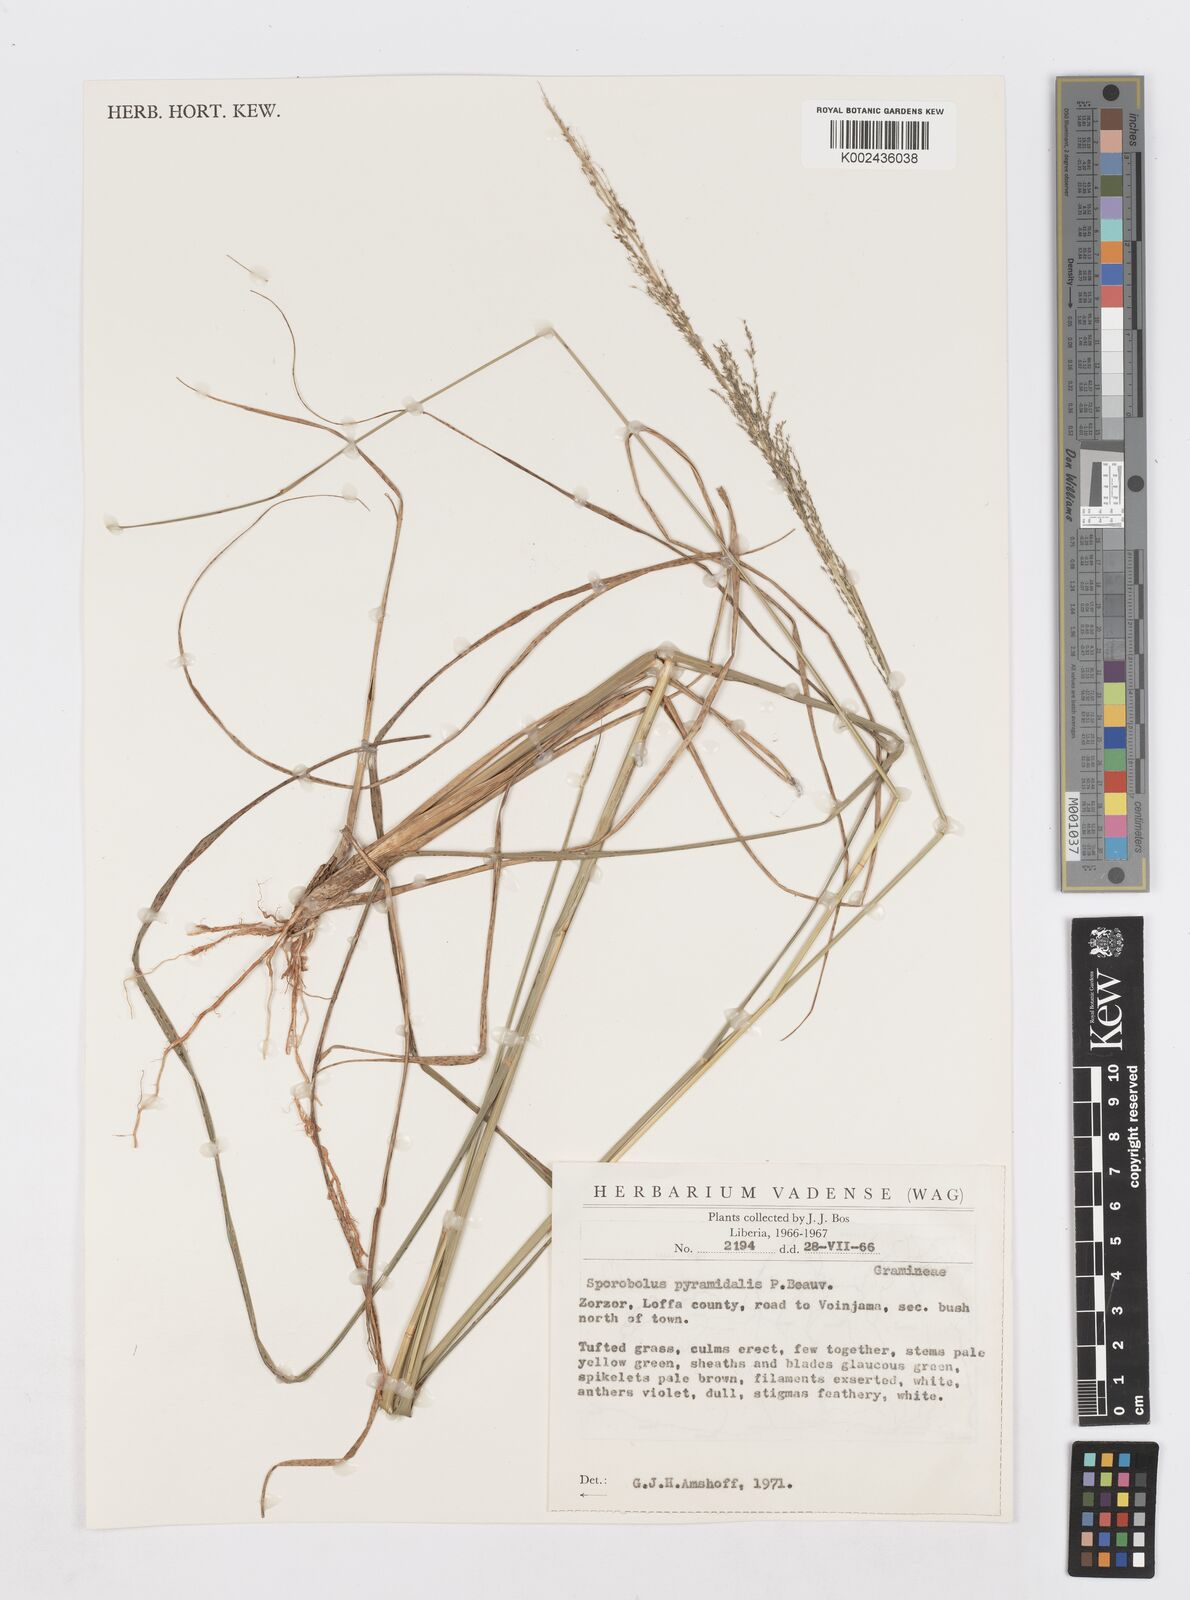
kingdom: Plantae
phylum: Tracheophyta
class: Liliopsida
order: Poales
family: Poaceae
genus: Sporobolus
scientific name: Sporobolus pyramidalis
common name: West indian dropseed
